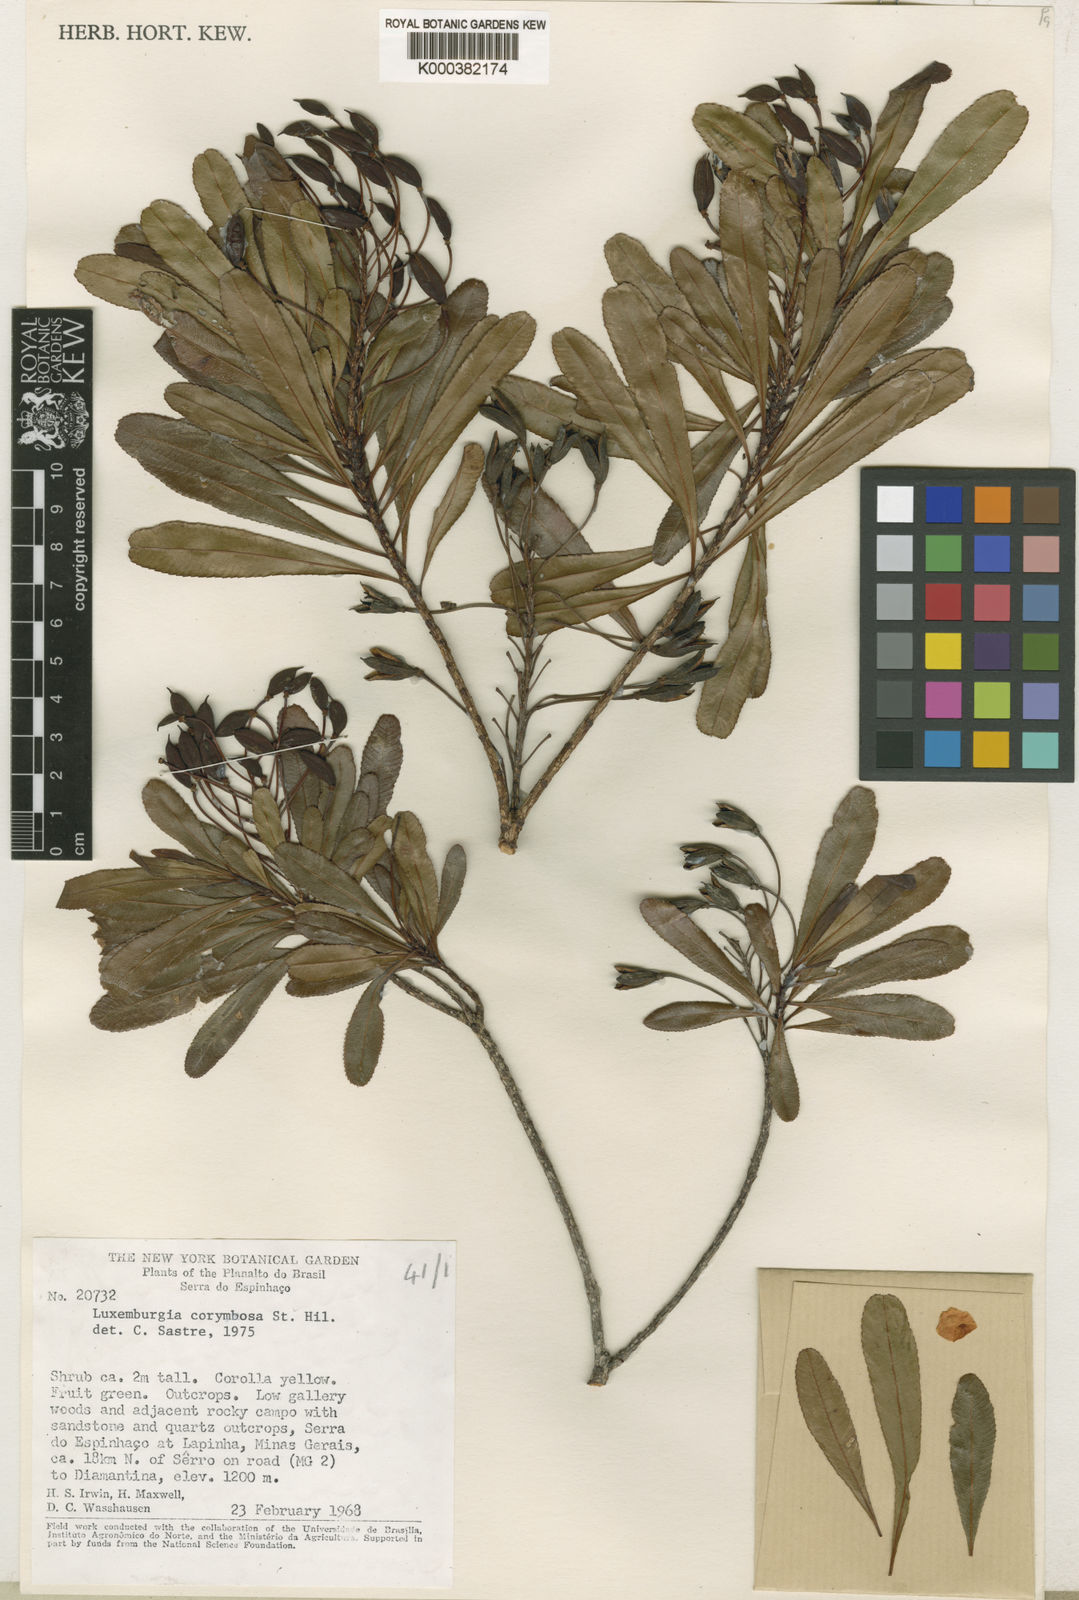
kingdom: Plantae
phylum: Tracheophyta
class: Magnoliopsida
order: Malpighiales
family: Ochnaceae
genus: Luxemburgia
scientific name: Luxemburgia flexuosa
